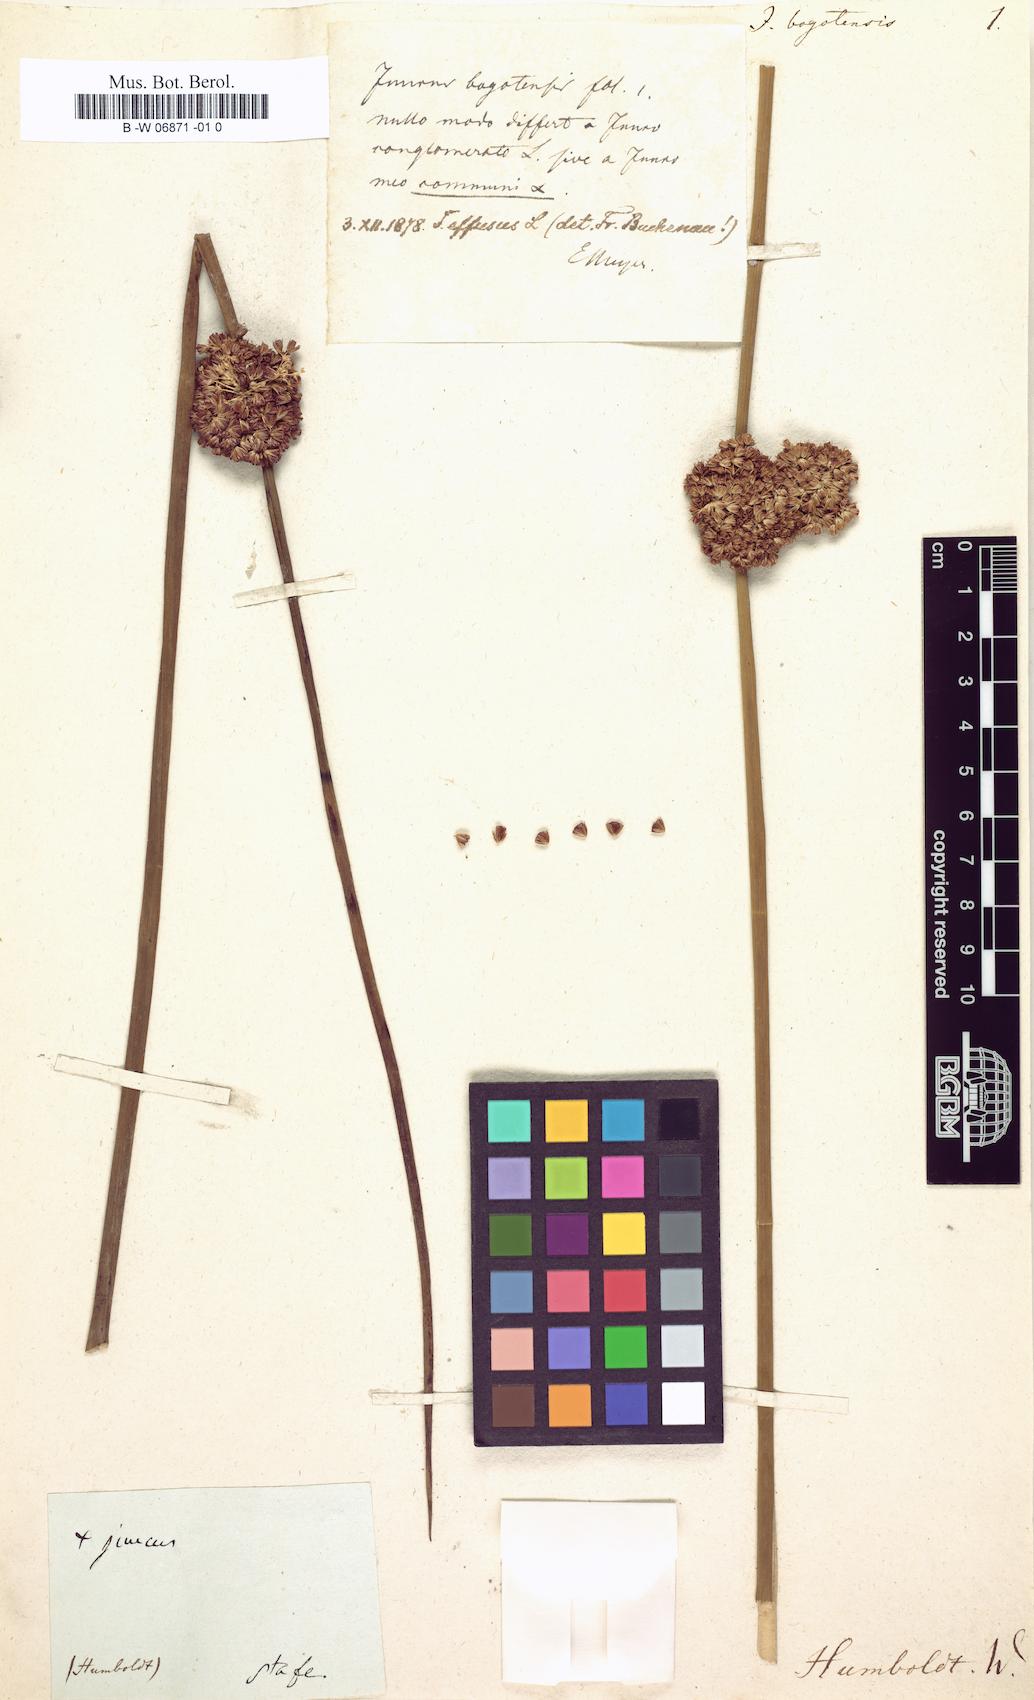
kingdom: Plantae
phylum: Tracheophyta
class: Liliopsida
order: Poales
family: Juncaceae
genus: Juncus
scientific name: Juncus effusus
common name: Soft rush
